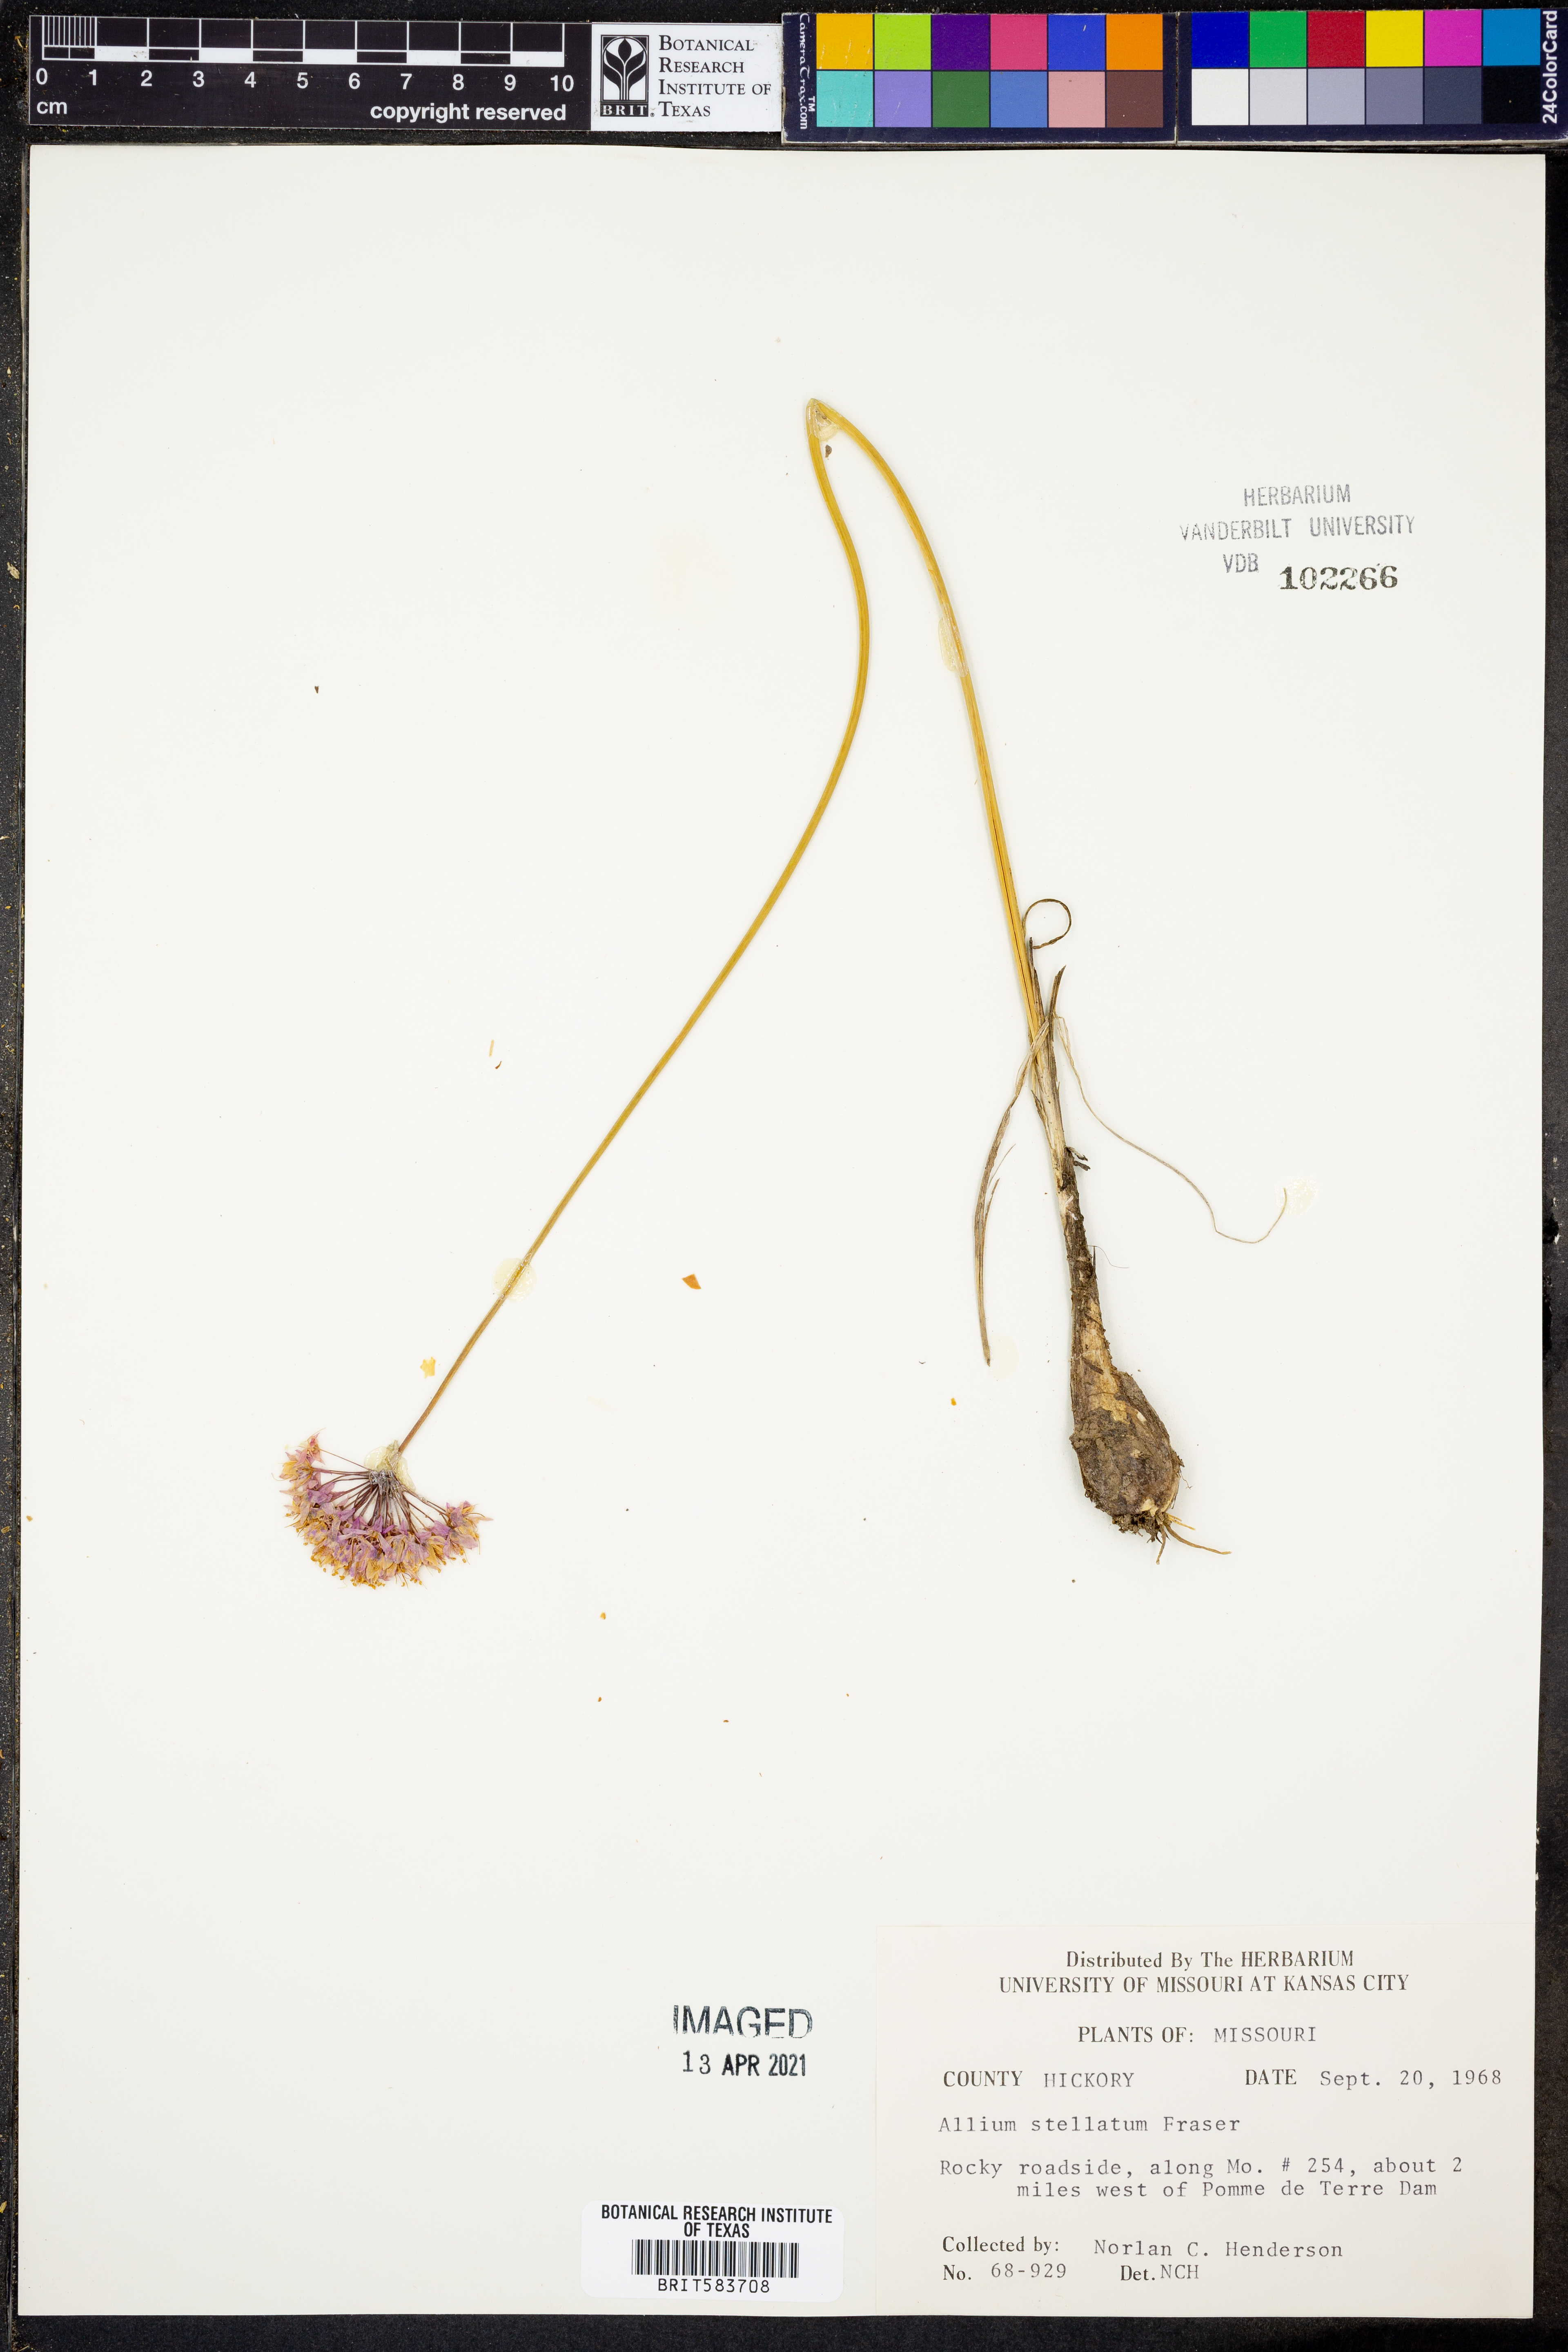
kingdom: Plantae
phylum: Tracheophyta
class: Liliopsida
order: Asparagales
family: Amaryllidaceae
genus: Allium
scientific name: Allium stellatum
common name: Autumn onion
